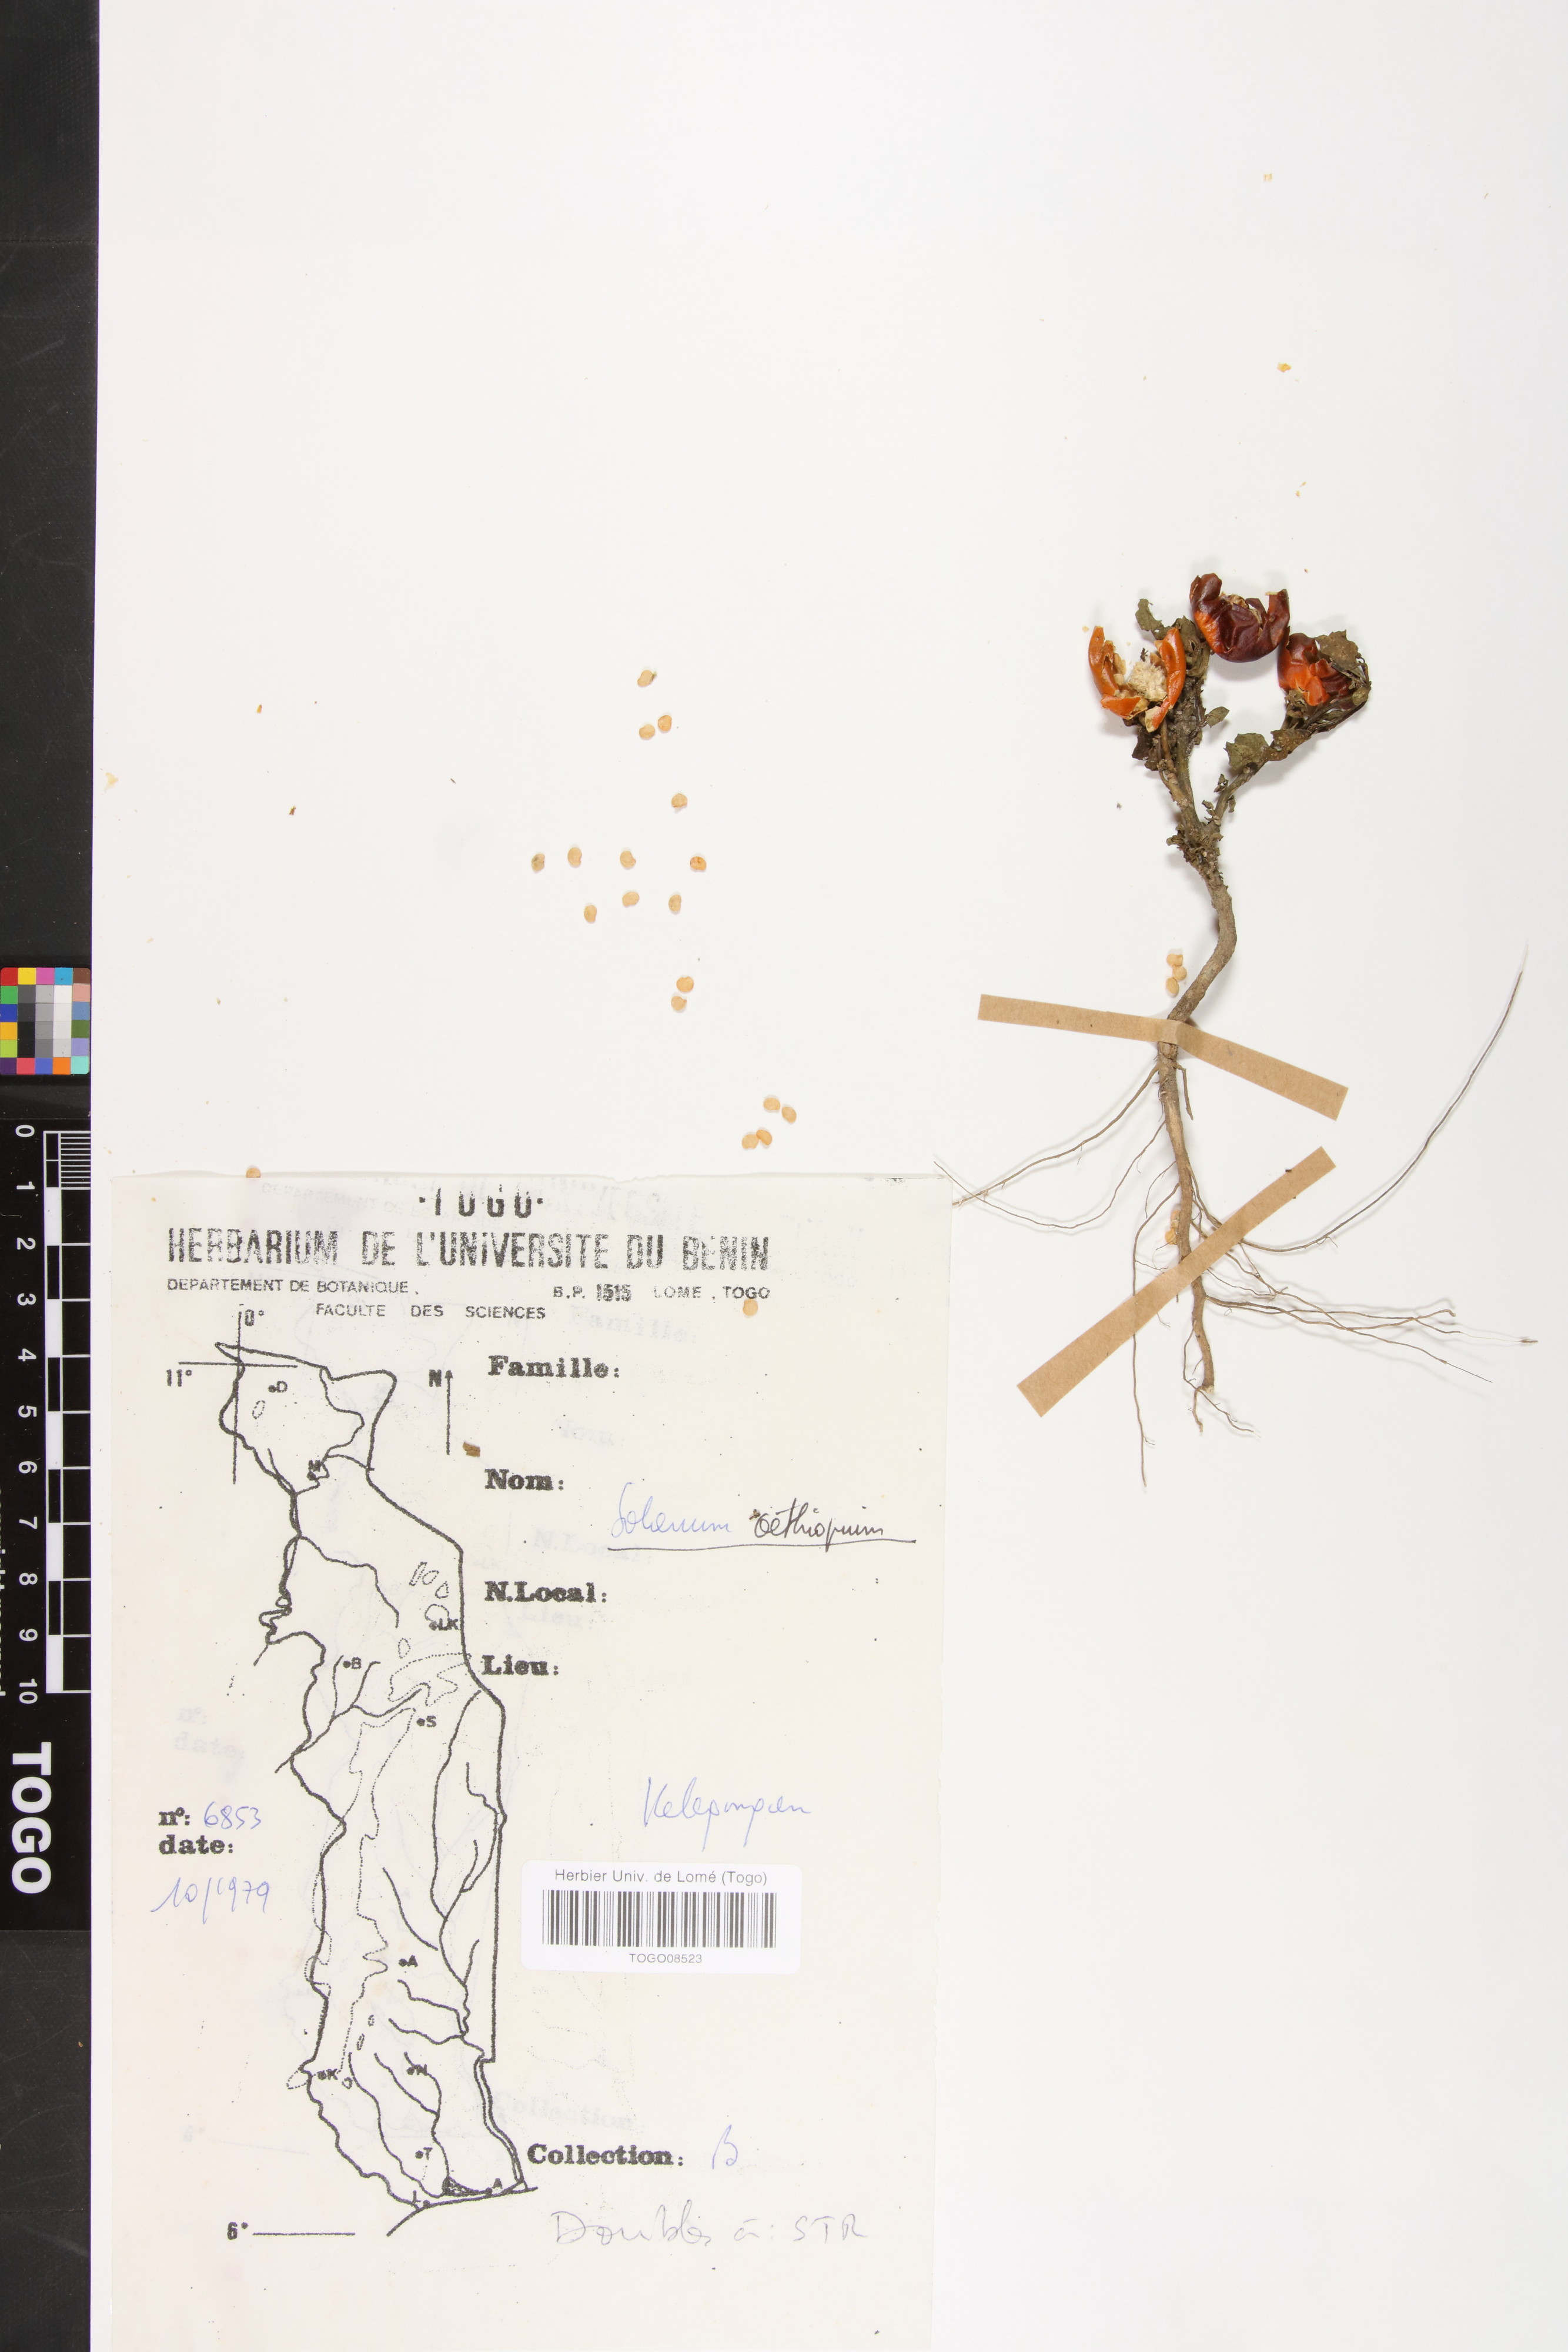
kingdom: Plantae
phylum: Tracheophyta
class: Magnoliopsida
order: Solanales
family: Solanaceae
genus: Solanum
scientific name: Solanum aethiopicum
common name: Gilo
